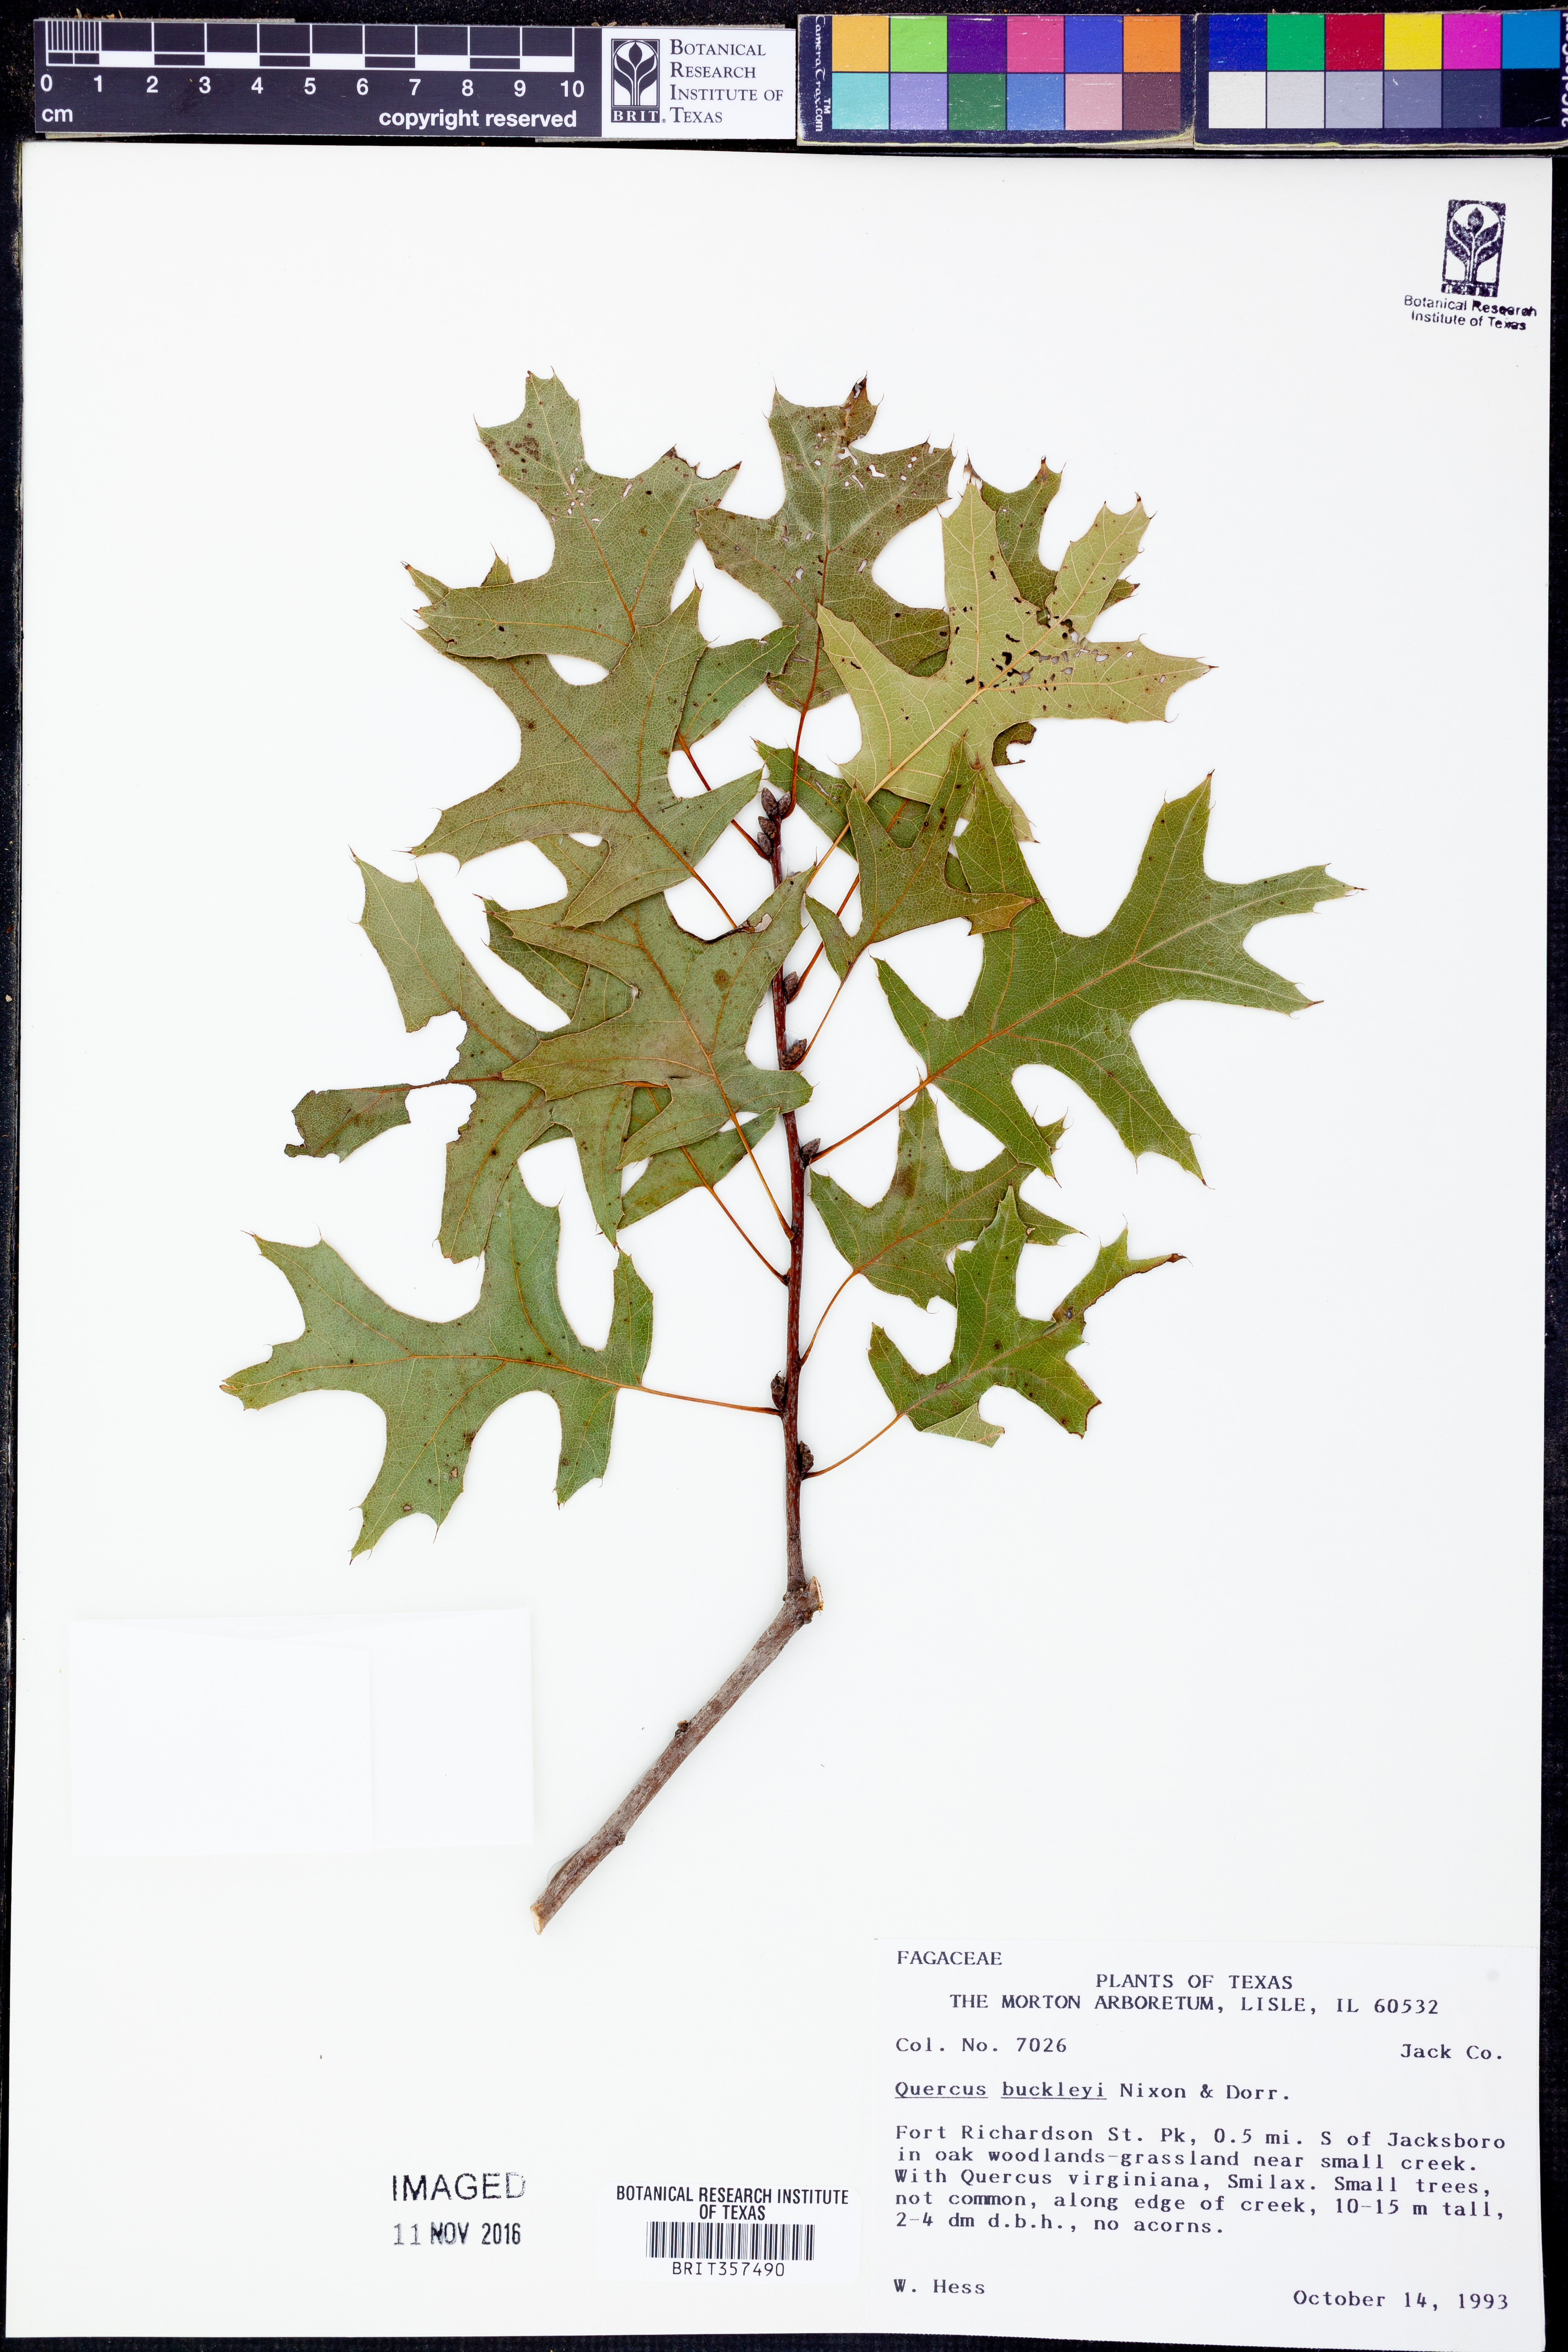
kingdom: Plantae
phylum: Tracheophyta
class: Magnoliopsida
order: Fagales
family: Fagaceae
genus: Quercus
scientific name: Quercus buckleyi
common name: Buckley oak
